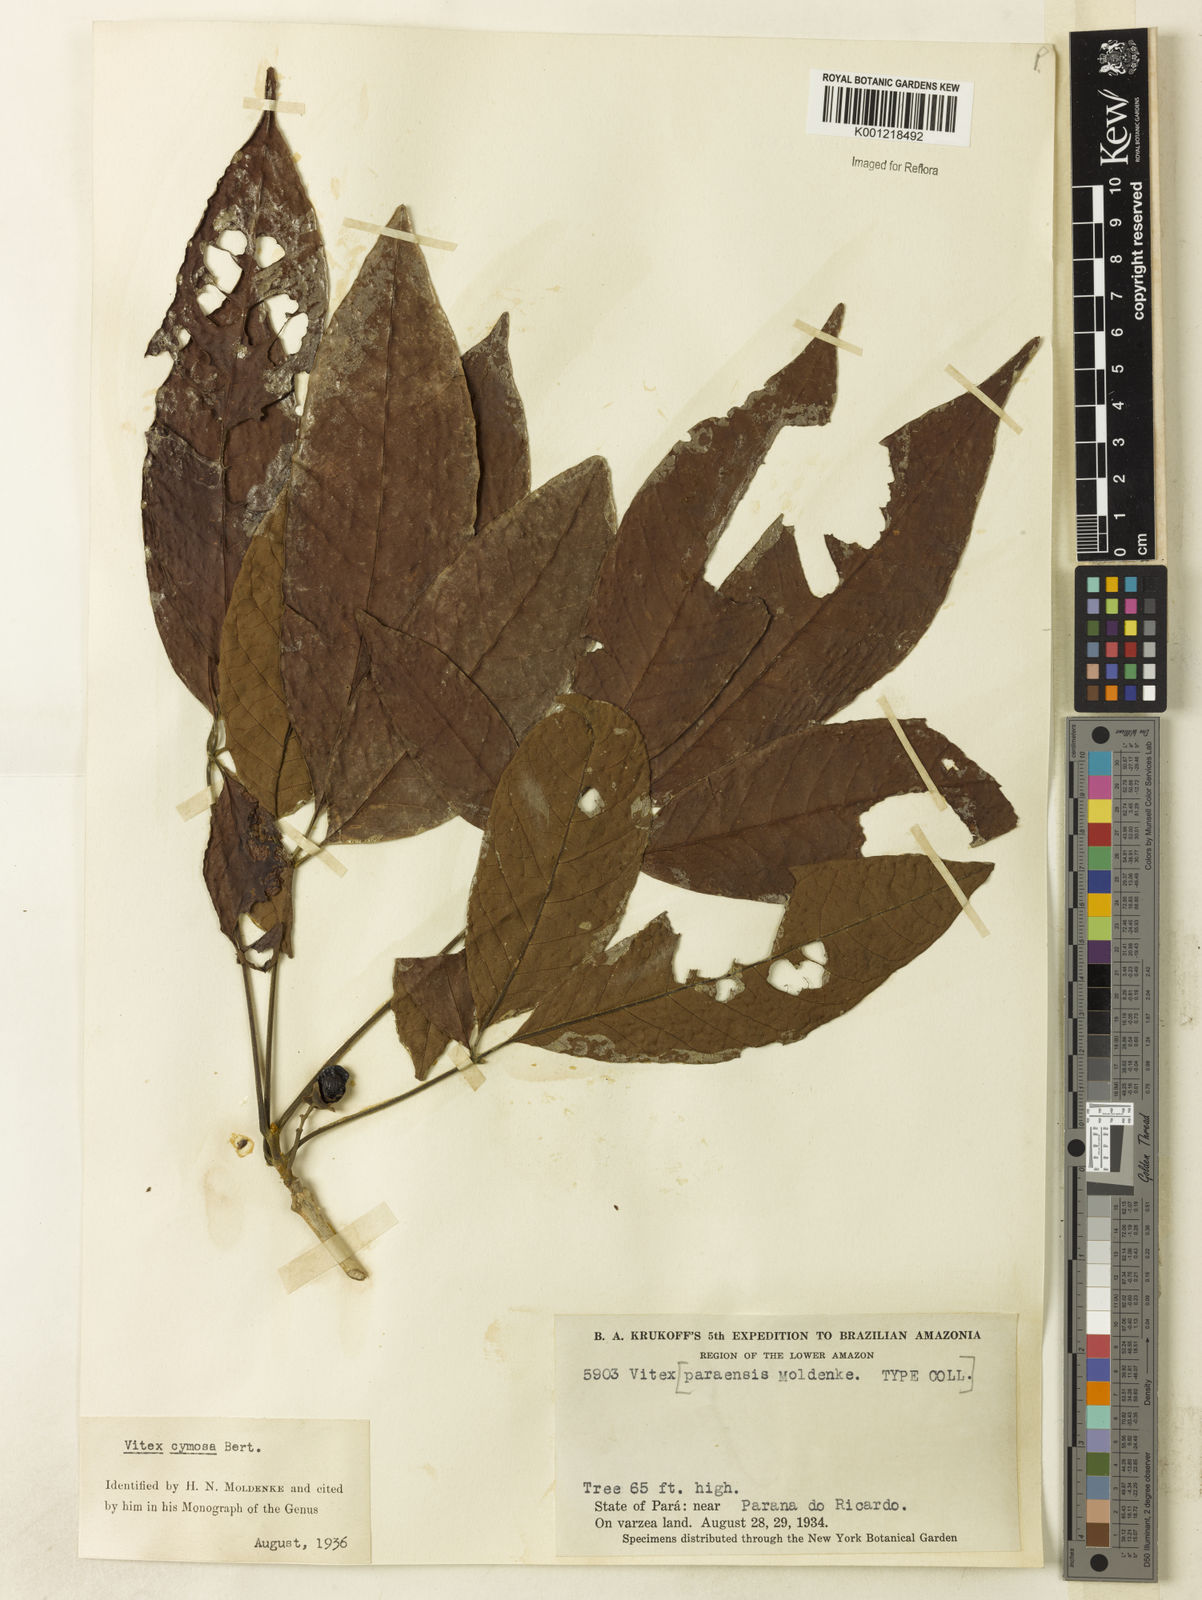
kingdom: Plantae
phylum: Tracheophyta
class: Magnoliopsida
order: Lamiales
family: Lamiaceae
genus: Vitex
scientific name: Vitex cymosa
